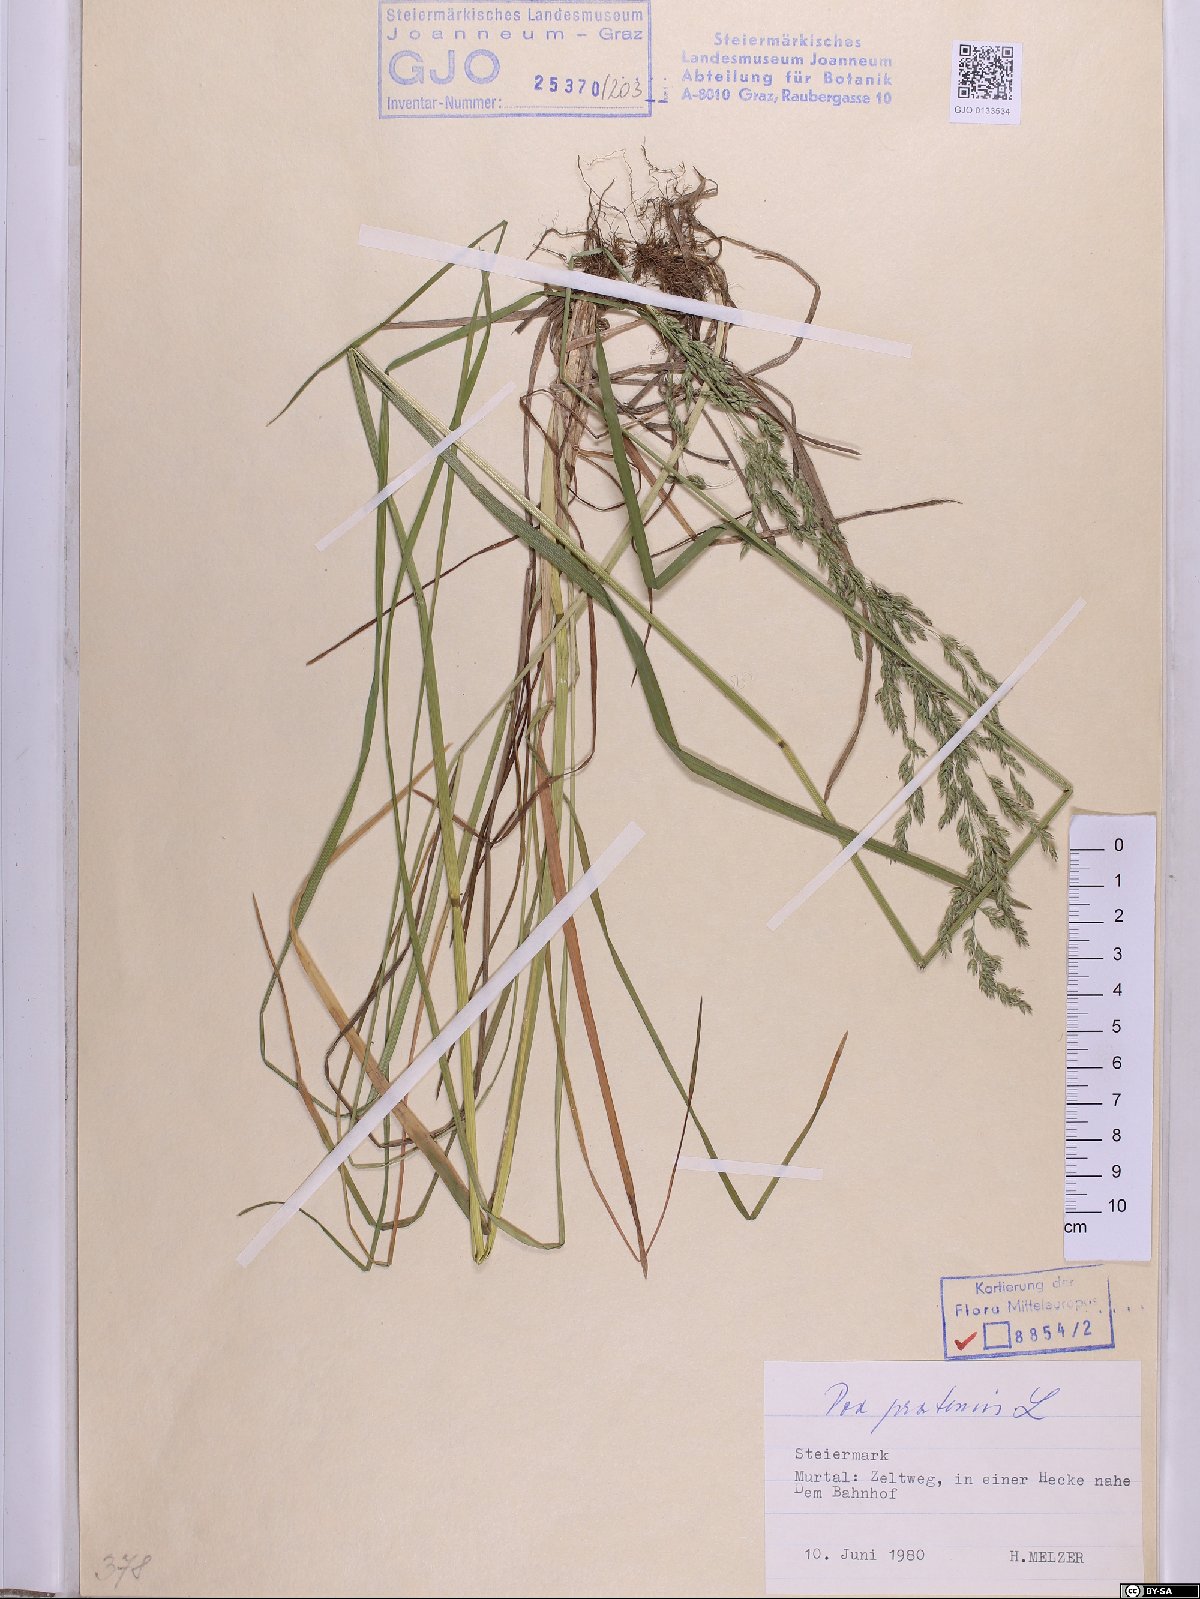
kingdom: Plantae
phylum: Tracheophyta
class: Liliopsida
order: Poales
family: Poaceae
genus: Poa
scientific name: Poa pratensis
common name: Kentucky bluegrass
